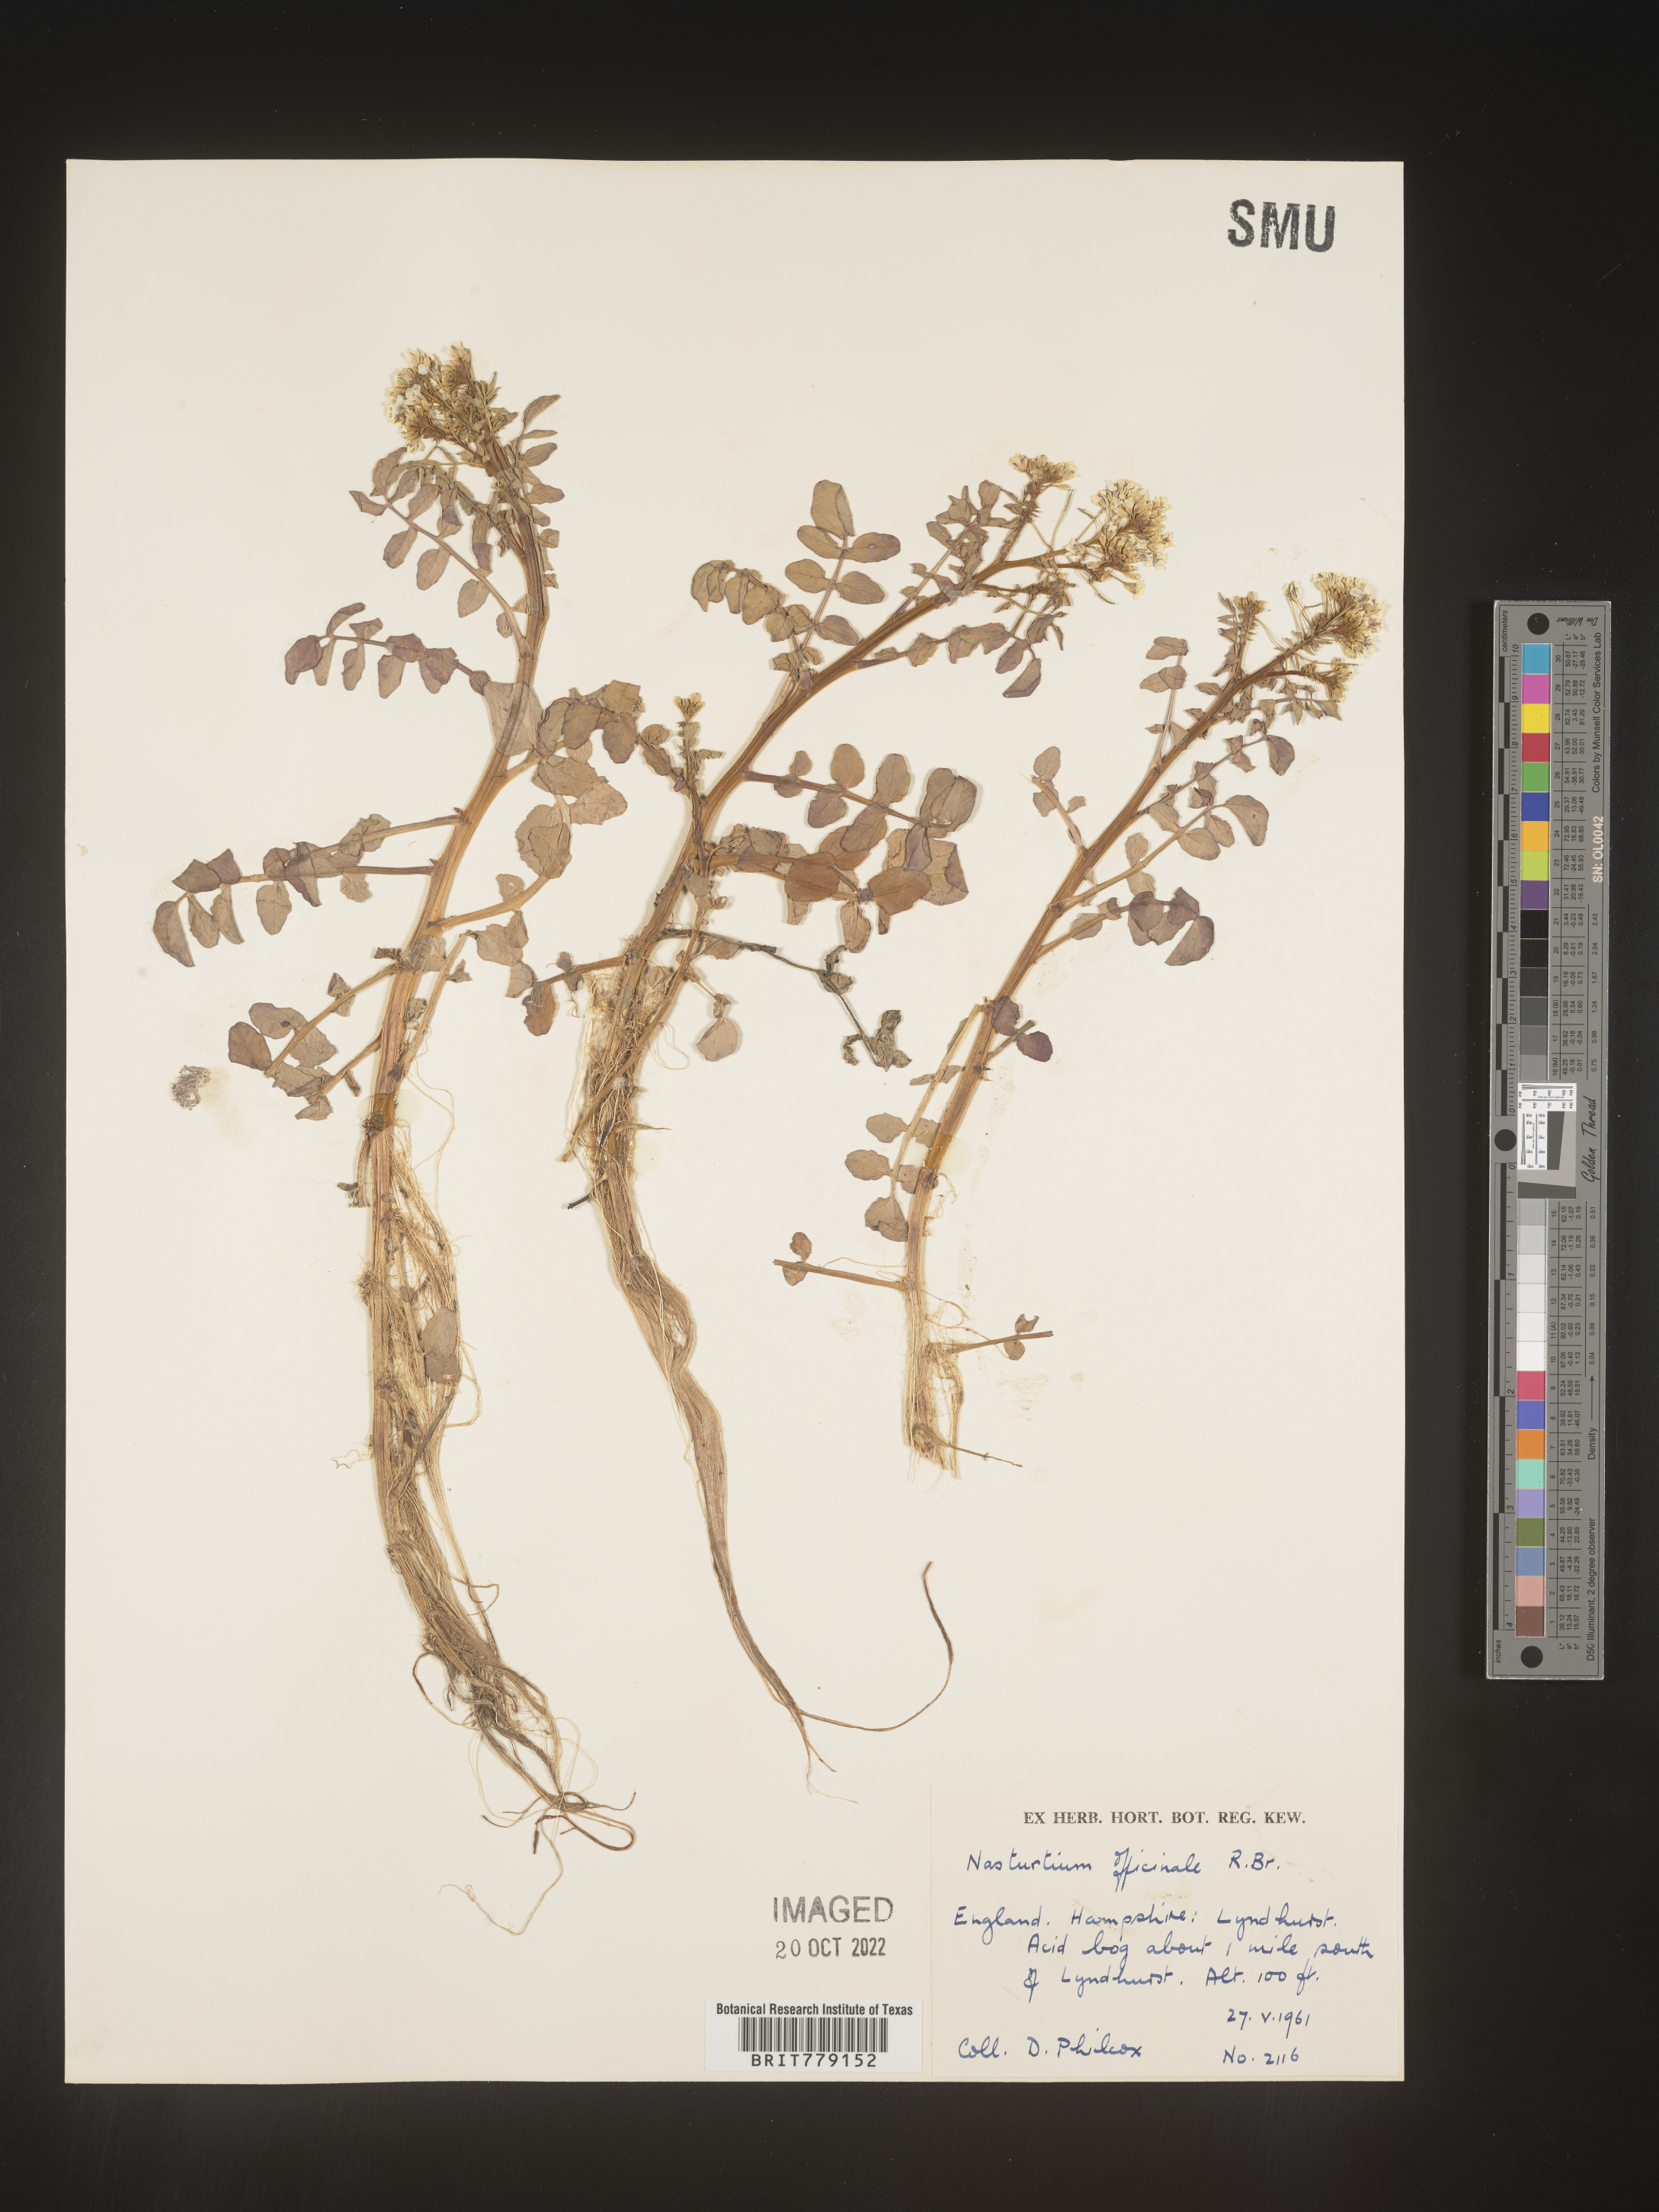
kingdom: Plantae
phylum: Tracheophyta
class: Magnoliopsida
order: Brassicales
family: Brassicaceae
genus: Rorippa
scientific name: Rorippa
